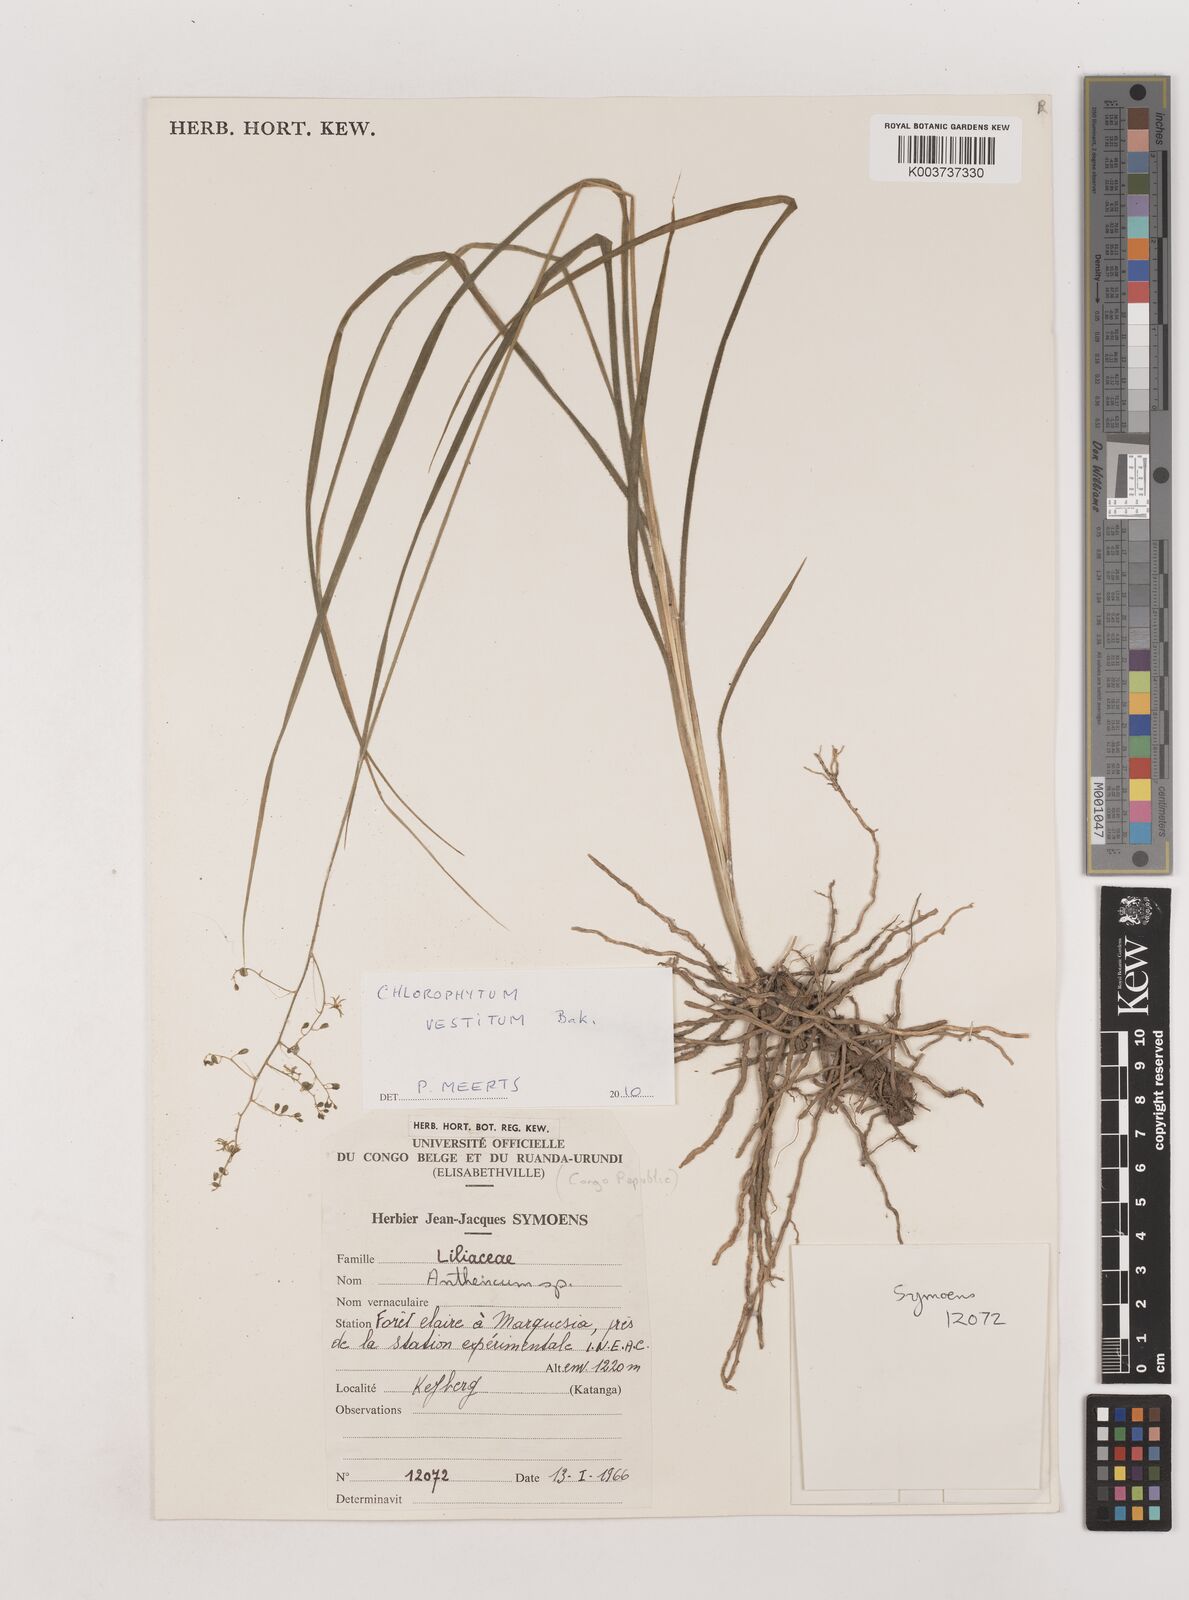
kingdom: Plantae
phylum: Tracheophyta
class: Liliopsida
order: Asparagales
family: Asparagaceae
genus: Chlorophytum
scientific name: Chlorophytum vestitum
